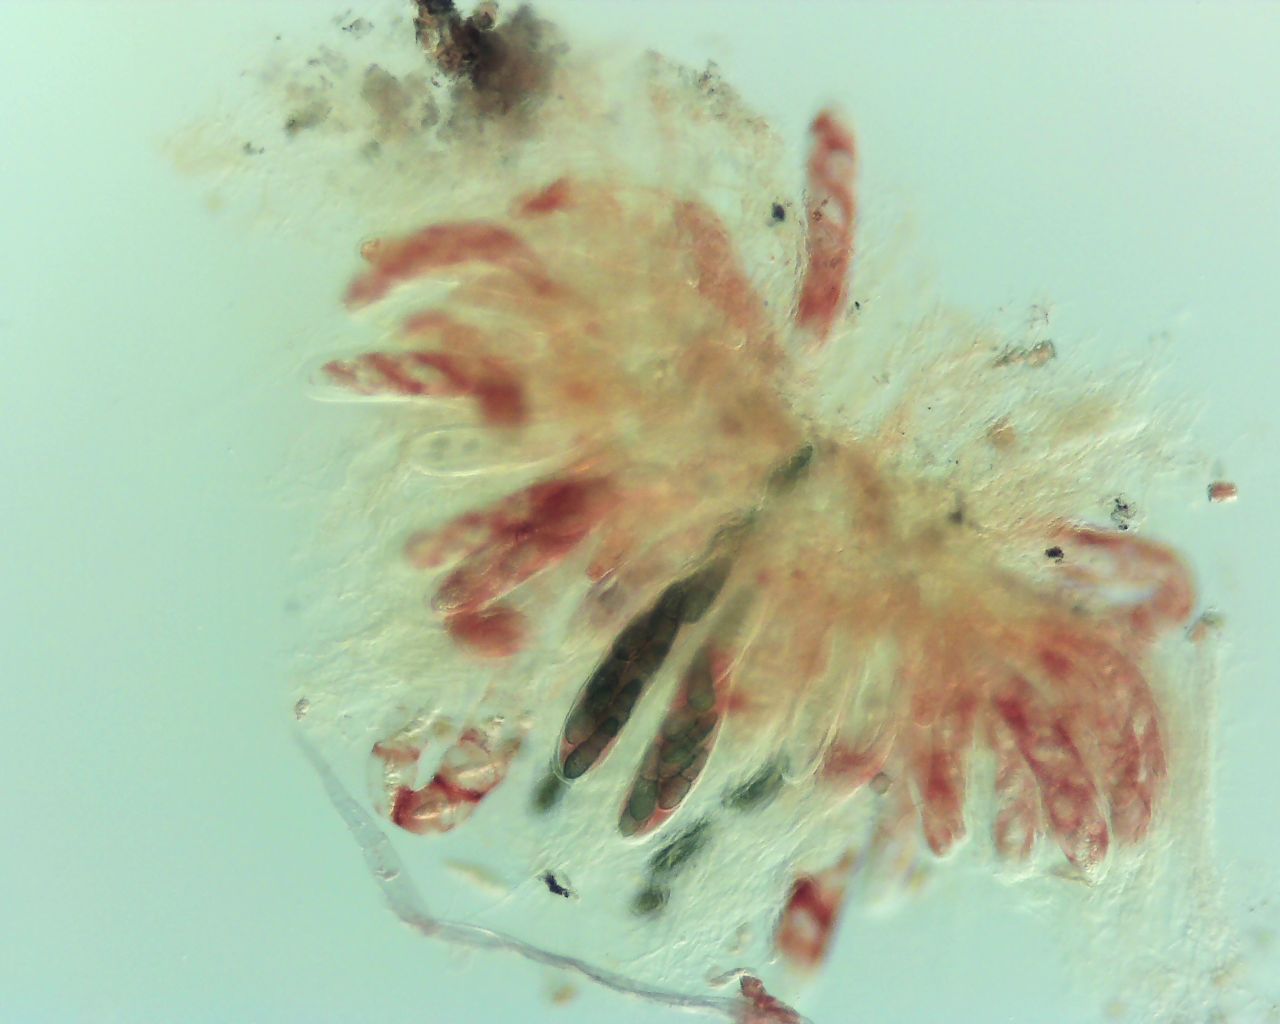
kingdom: Fungi
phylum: Ascomycota
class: Dothideomycetes
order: Pleosporales
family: Pleomassariaceae
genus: Splanchnonema
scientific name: Splanchnonema pupula
